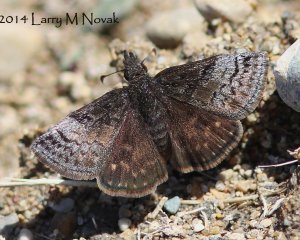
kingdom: Animalia
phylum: Arthropoda
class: Insecta
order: Lepidoptera
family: Hesperiidae
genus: Erynnis
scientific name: Erynnis icelus
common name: Dreamy Duskywing
